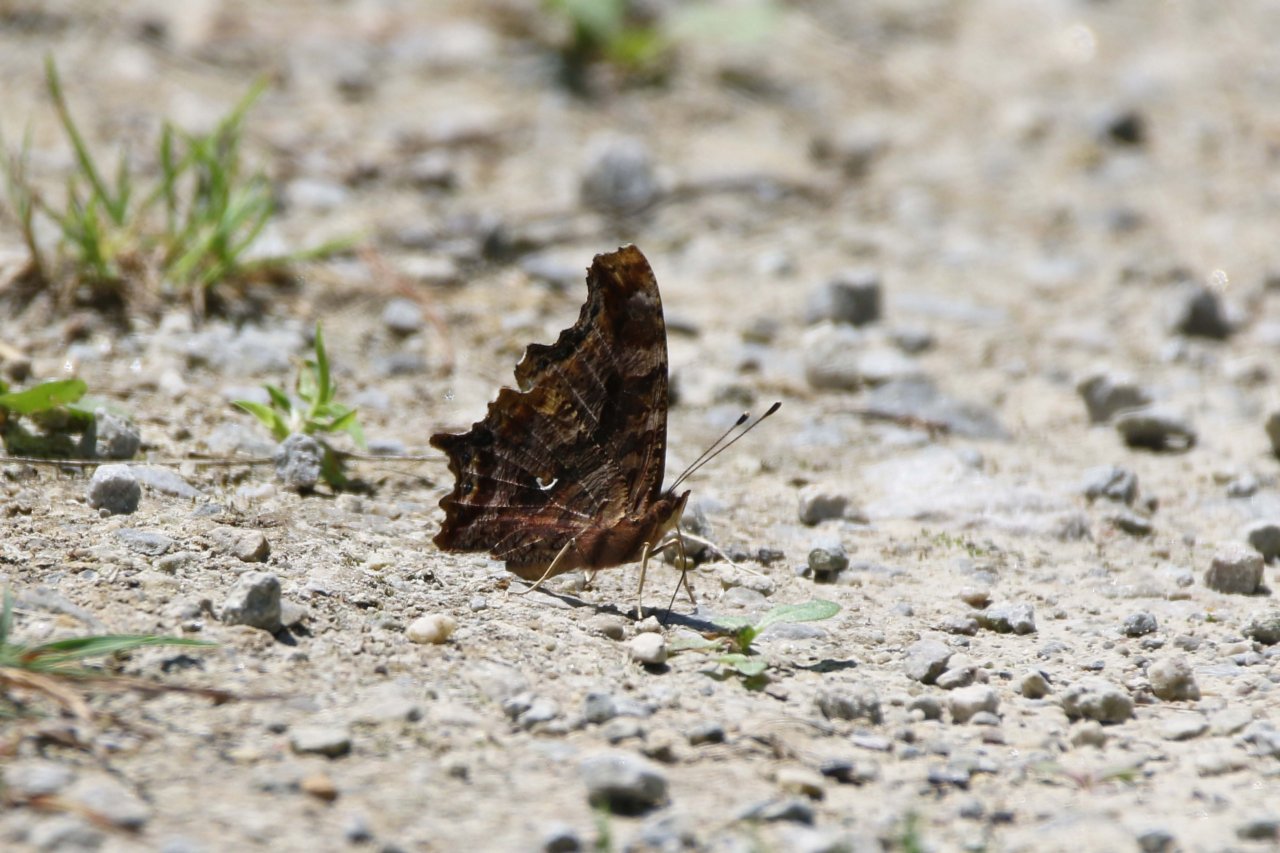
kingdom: Animalia
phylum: Arthropoda
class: Insecta
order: Lepidoptera
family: Nymphalidae
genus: Polygonia
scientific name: Polygonia comma
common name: Eastern Comma
